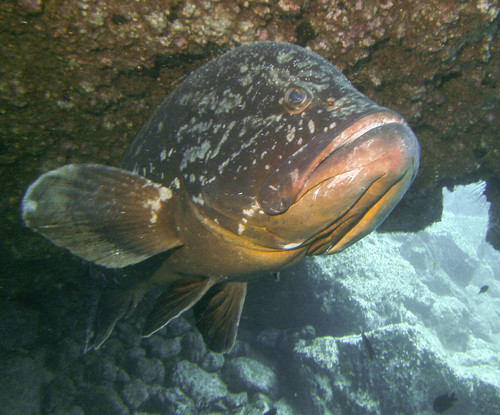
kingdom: Animalia
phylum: Chordata
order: Perciformes
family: Serranidae
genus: Epinephelus
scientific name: Epinephelus marginatus
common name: Dusky grouper
